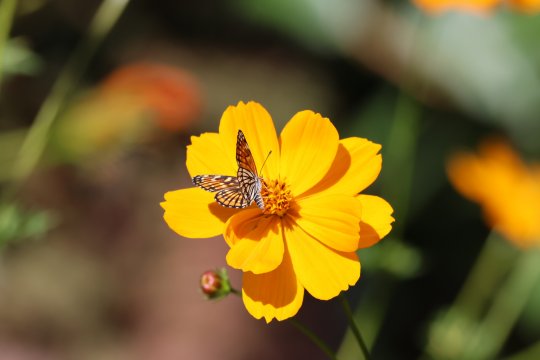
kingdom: Animalia
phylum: Arthropoda
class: Insecta
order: Lepidoptera
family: Nymphalidae
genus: Thessalia
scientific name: Thessalia leanira
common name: Fulvia Checkerspot
